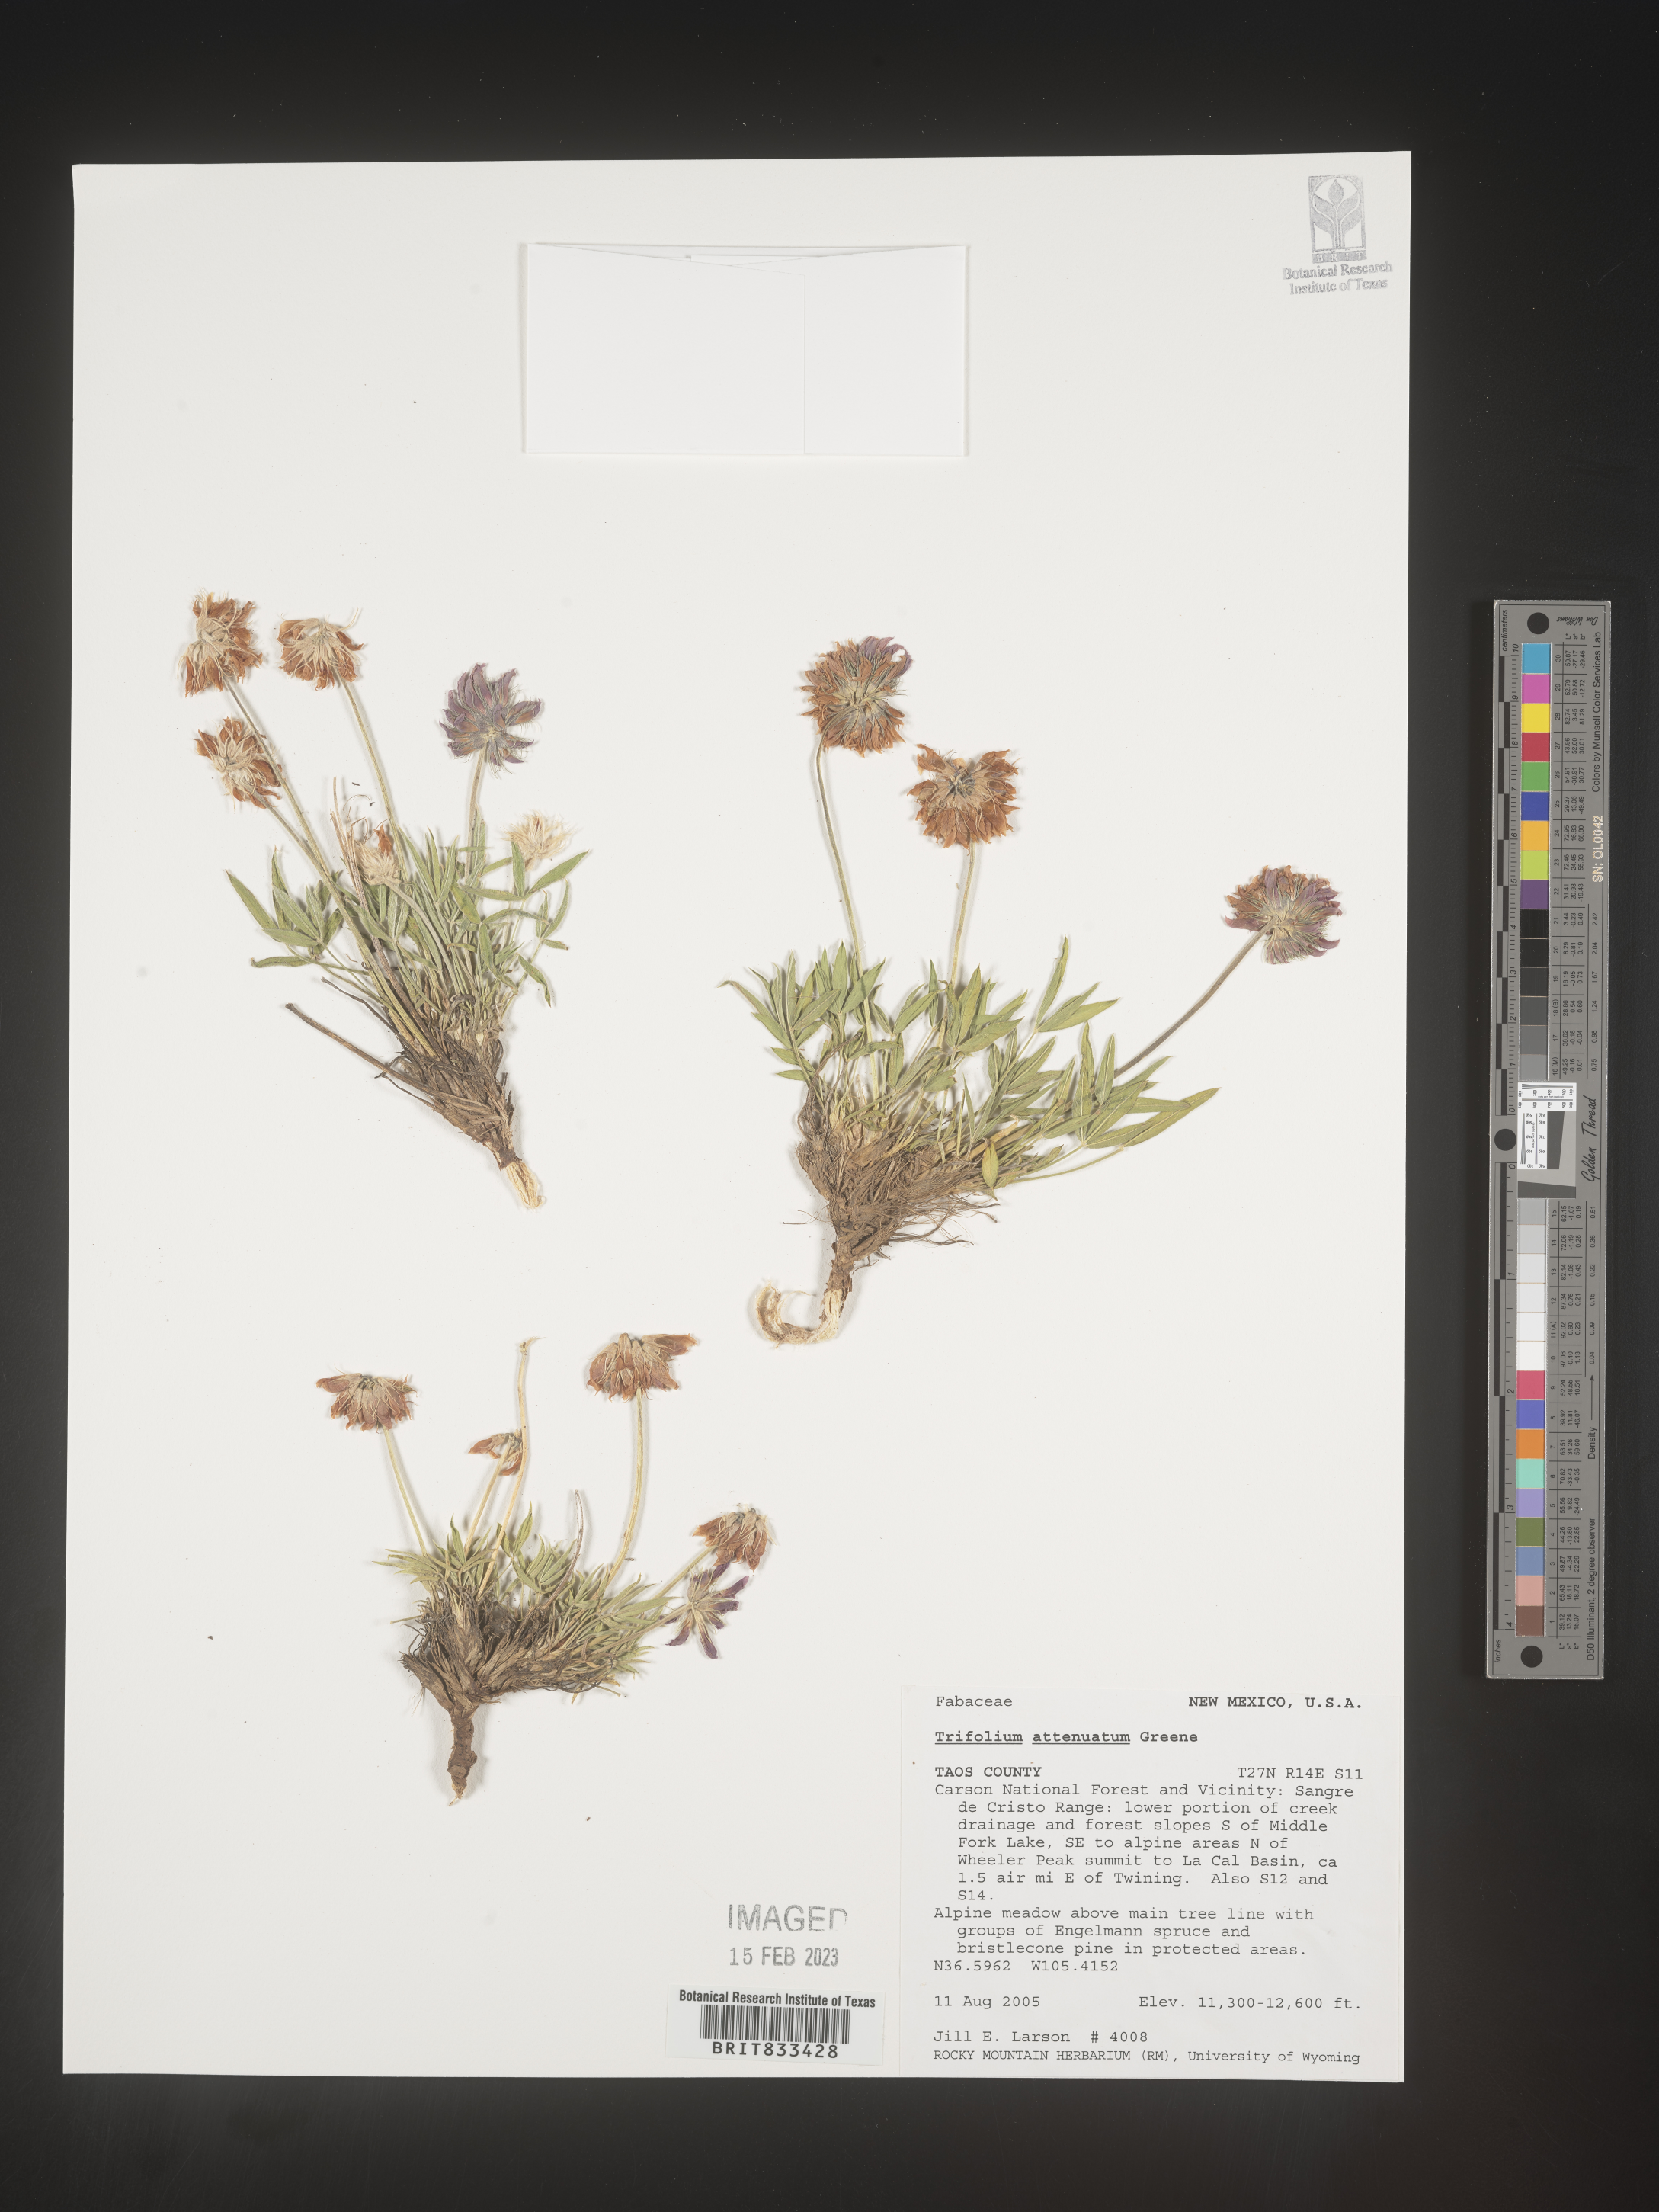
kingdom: Plantae
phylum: Tracheophyta
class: Magnoliopsida
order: Fabales
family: Fabaceae
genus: Trifolium
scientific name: Trifolium attenuatum
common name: Rocky mountain clover
